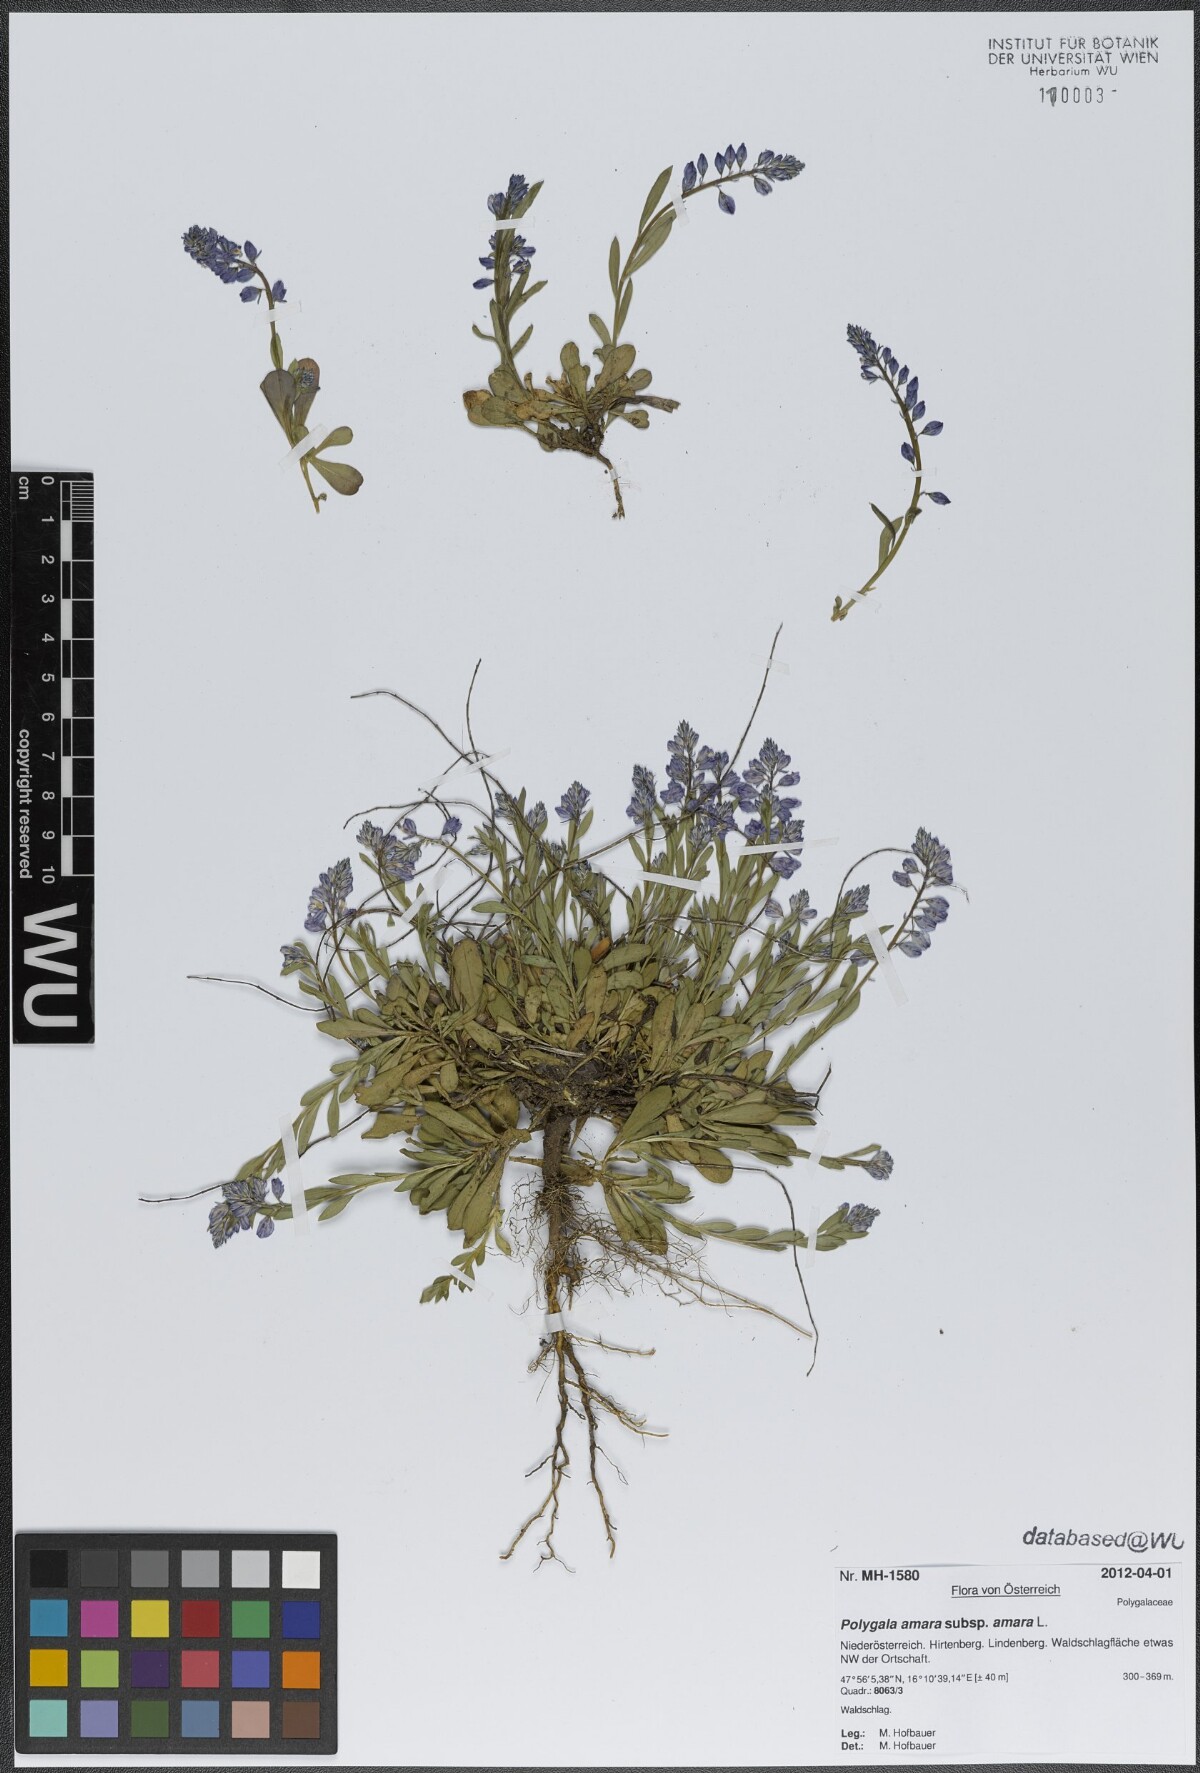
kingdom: Plantae
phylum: Tracheophyta
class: Magnoliopsida
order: Fabales
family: Polygalaceae
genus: Polygala
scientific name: Polygala amara
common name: Milkwort
